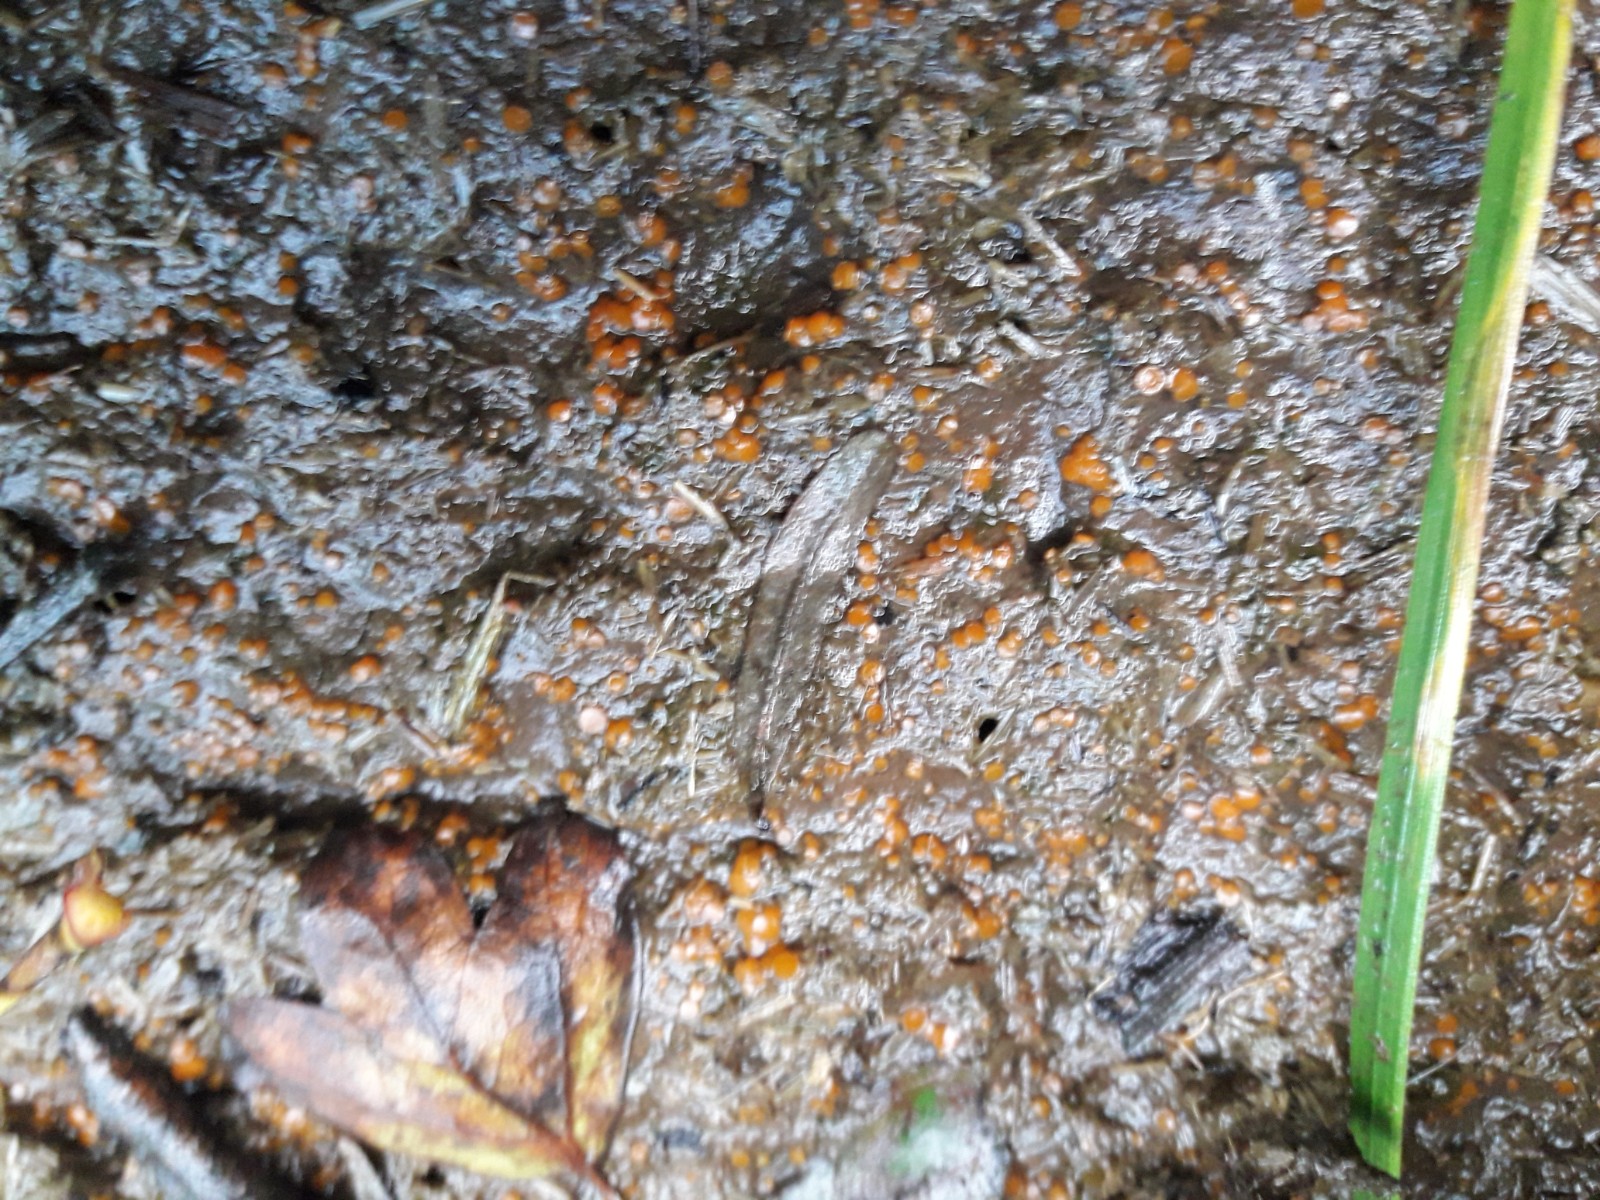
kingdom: Fungi
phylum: Ascomycota
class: Pezizomycetes
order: Pezizales
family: Pyronemataceae
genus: Cheilymenia
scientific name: Cheilymenia granulata
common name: møgbæger
